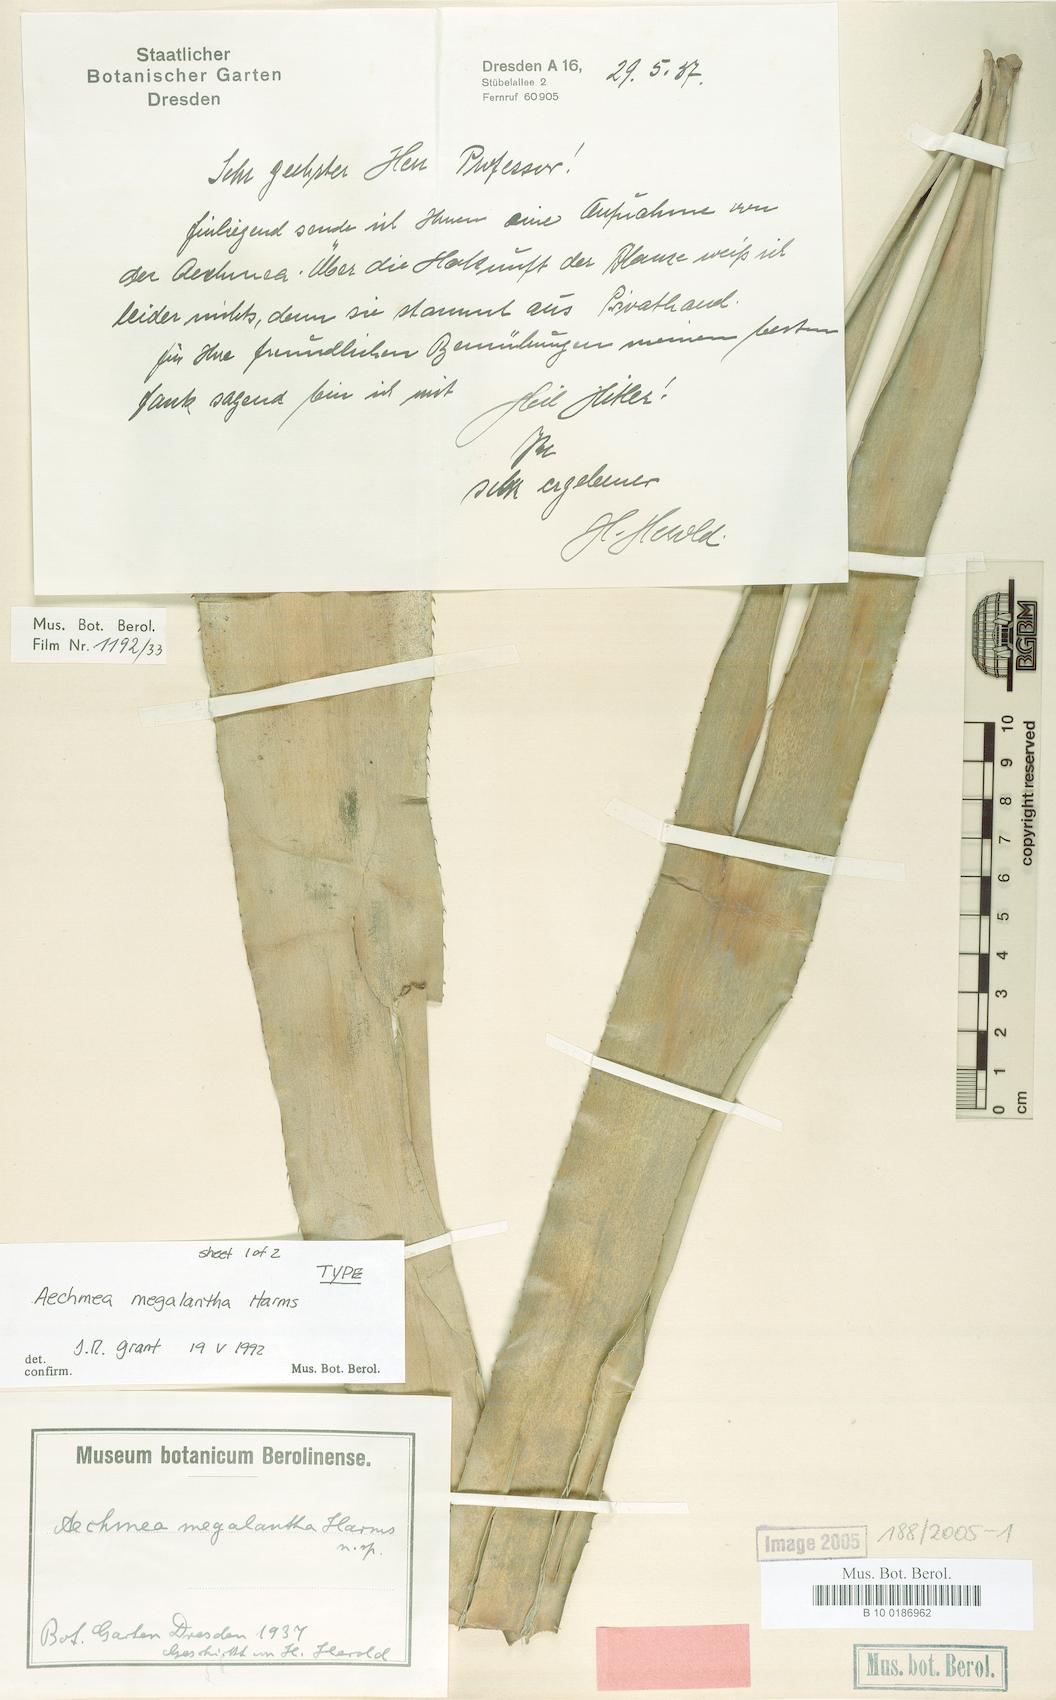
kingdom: Plantae
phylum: Tracheophyta
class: Liliopsida
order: Poales
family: Bromeliaceae
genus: Aechmea
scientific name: Aechmea costantinii
